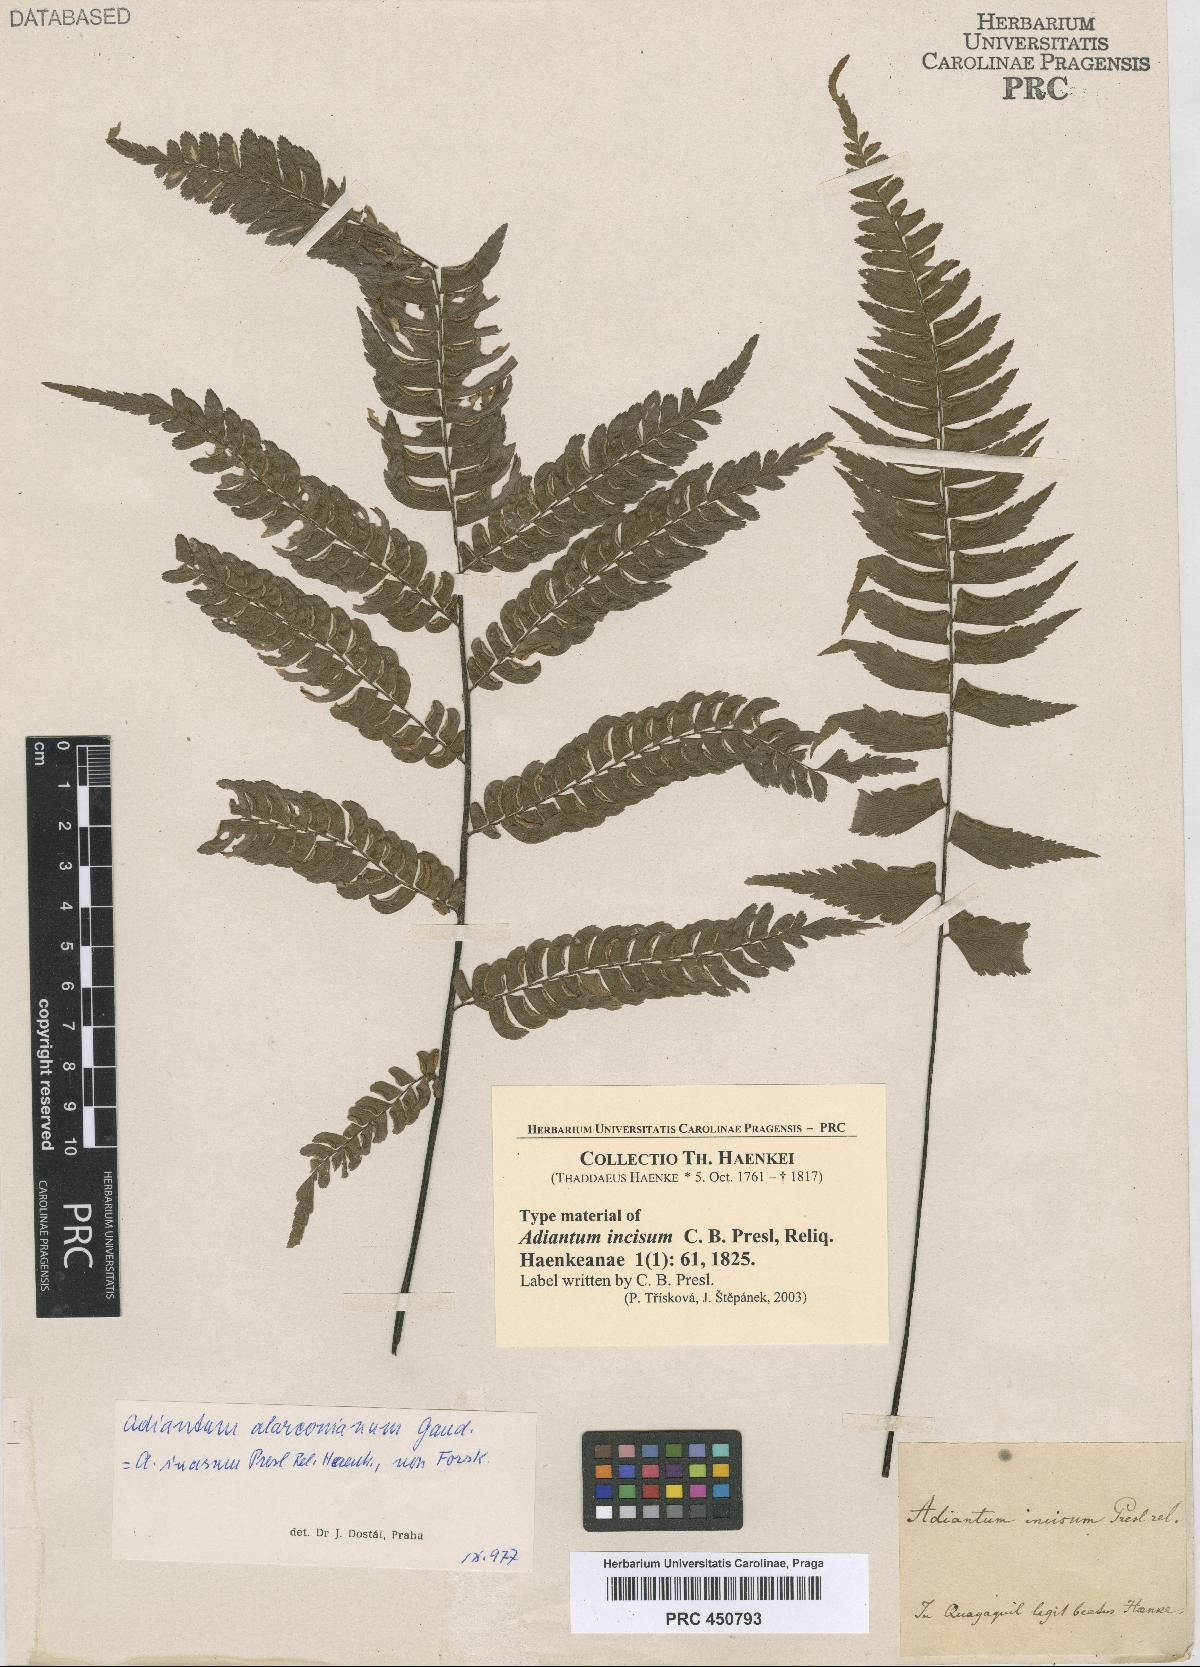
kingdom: Plantae
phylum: Tracheophyta
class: Polypodiopsida
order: Polypodiales
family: Pteridaceae
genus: Adiantum
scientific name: Adiantum alarconianum
